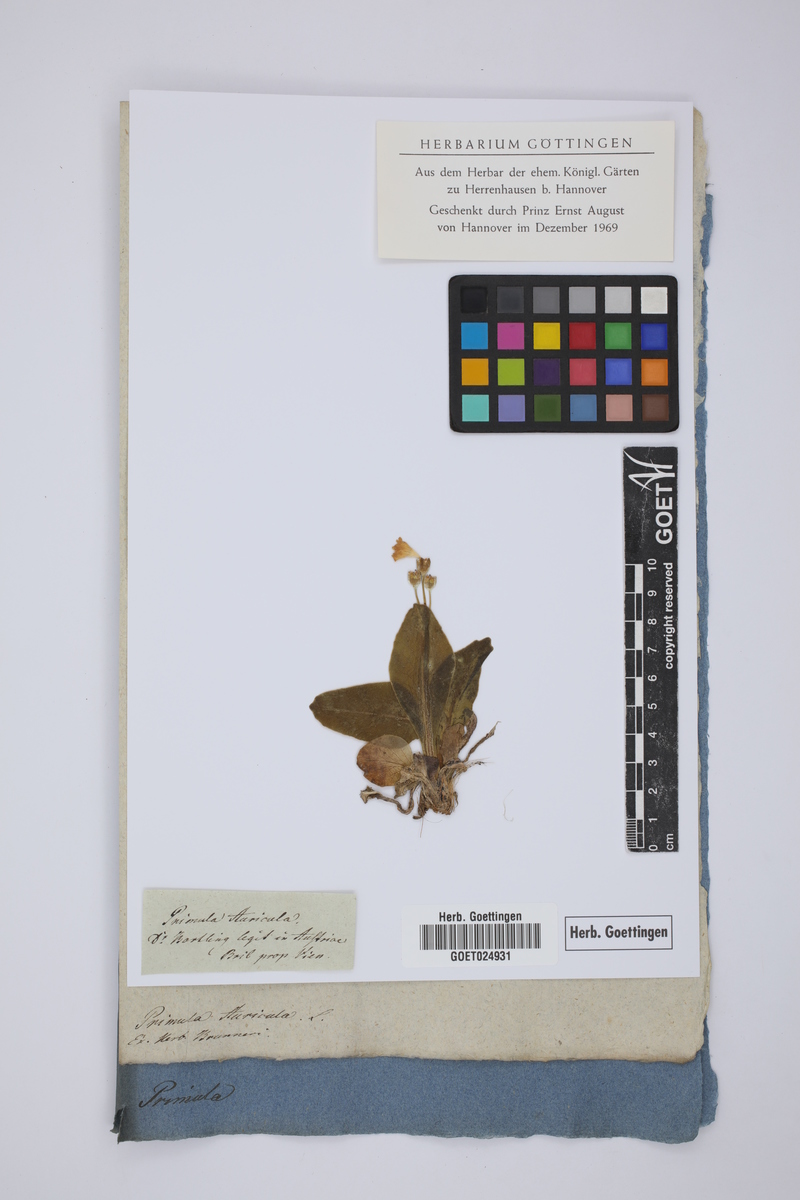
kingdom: Plantae
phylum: Tracheophyta
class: Magnoliopsida
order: Ericales
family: Primulaceae
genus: Primula
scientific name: Primula auricula
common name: Auricula
